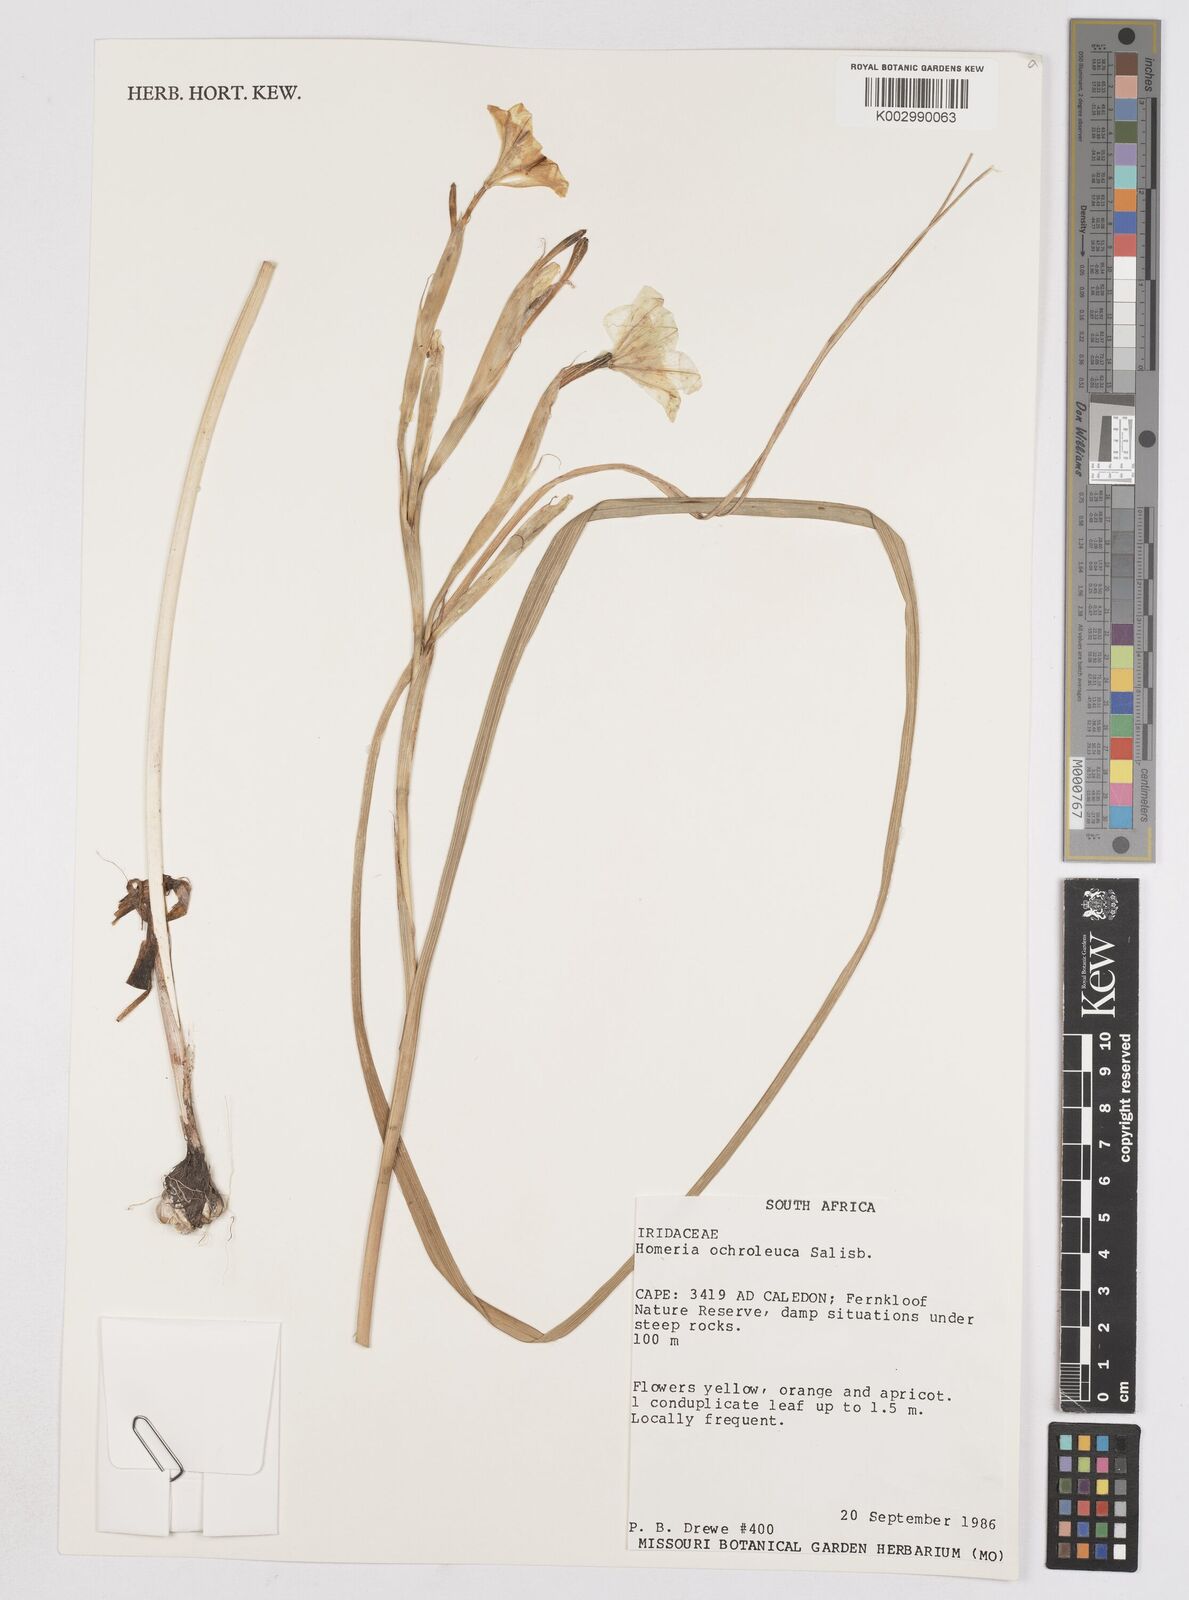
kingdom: Plantae
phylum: Tracheophyta
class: Liliopsida
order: Asparagales
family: Iridaceae
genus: Moraea
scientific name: Moraea ochroleuca
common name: Red tulp
